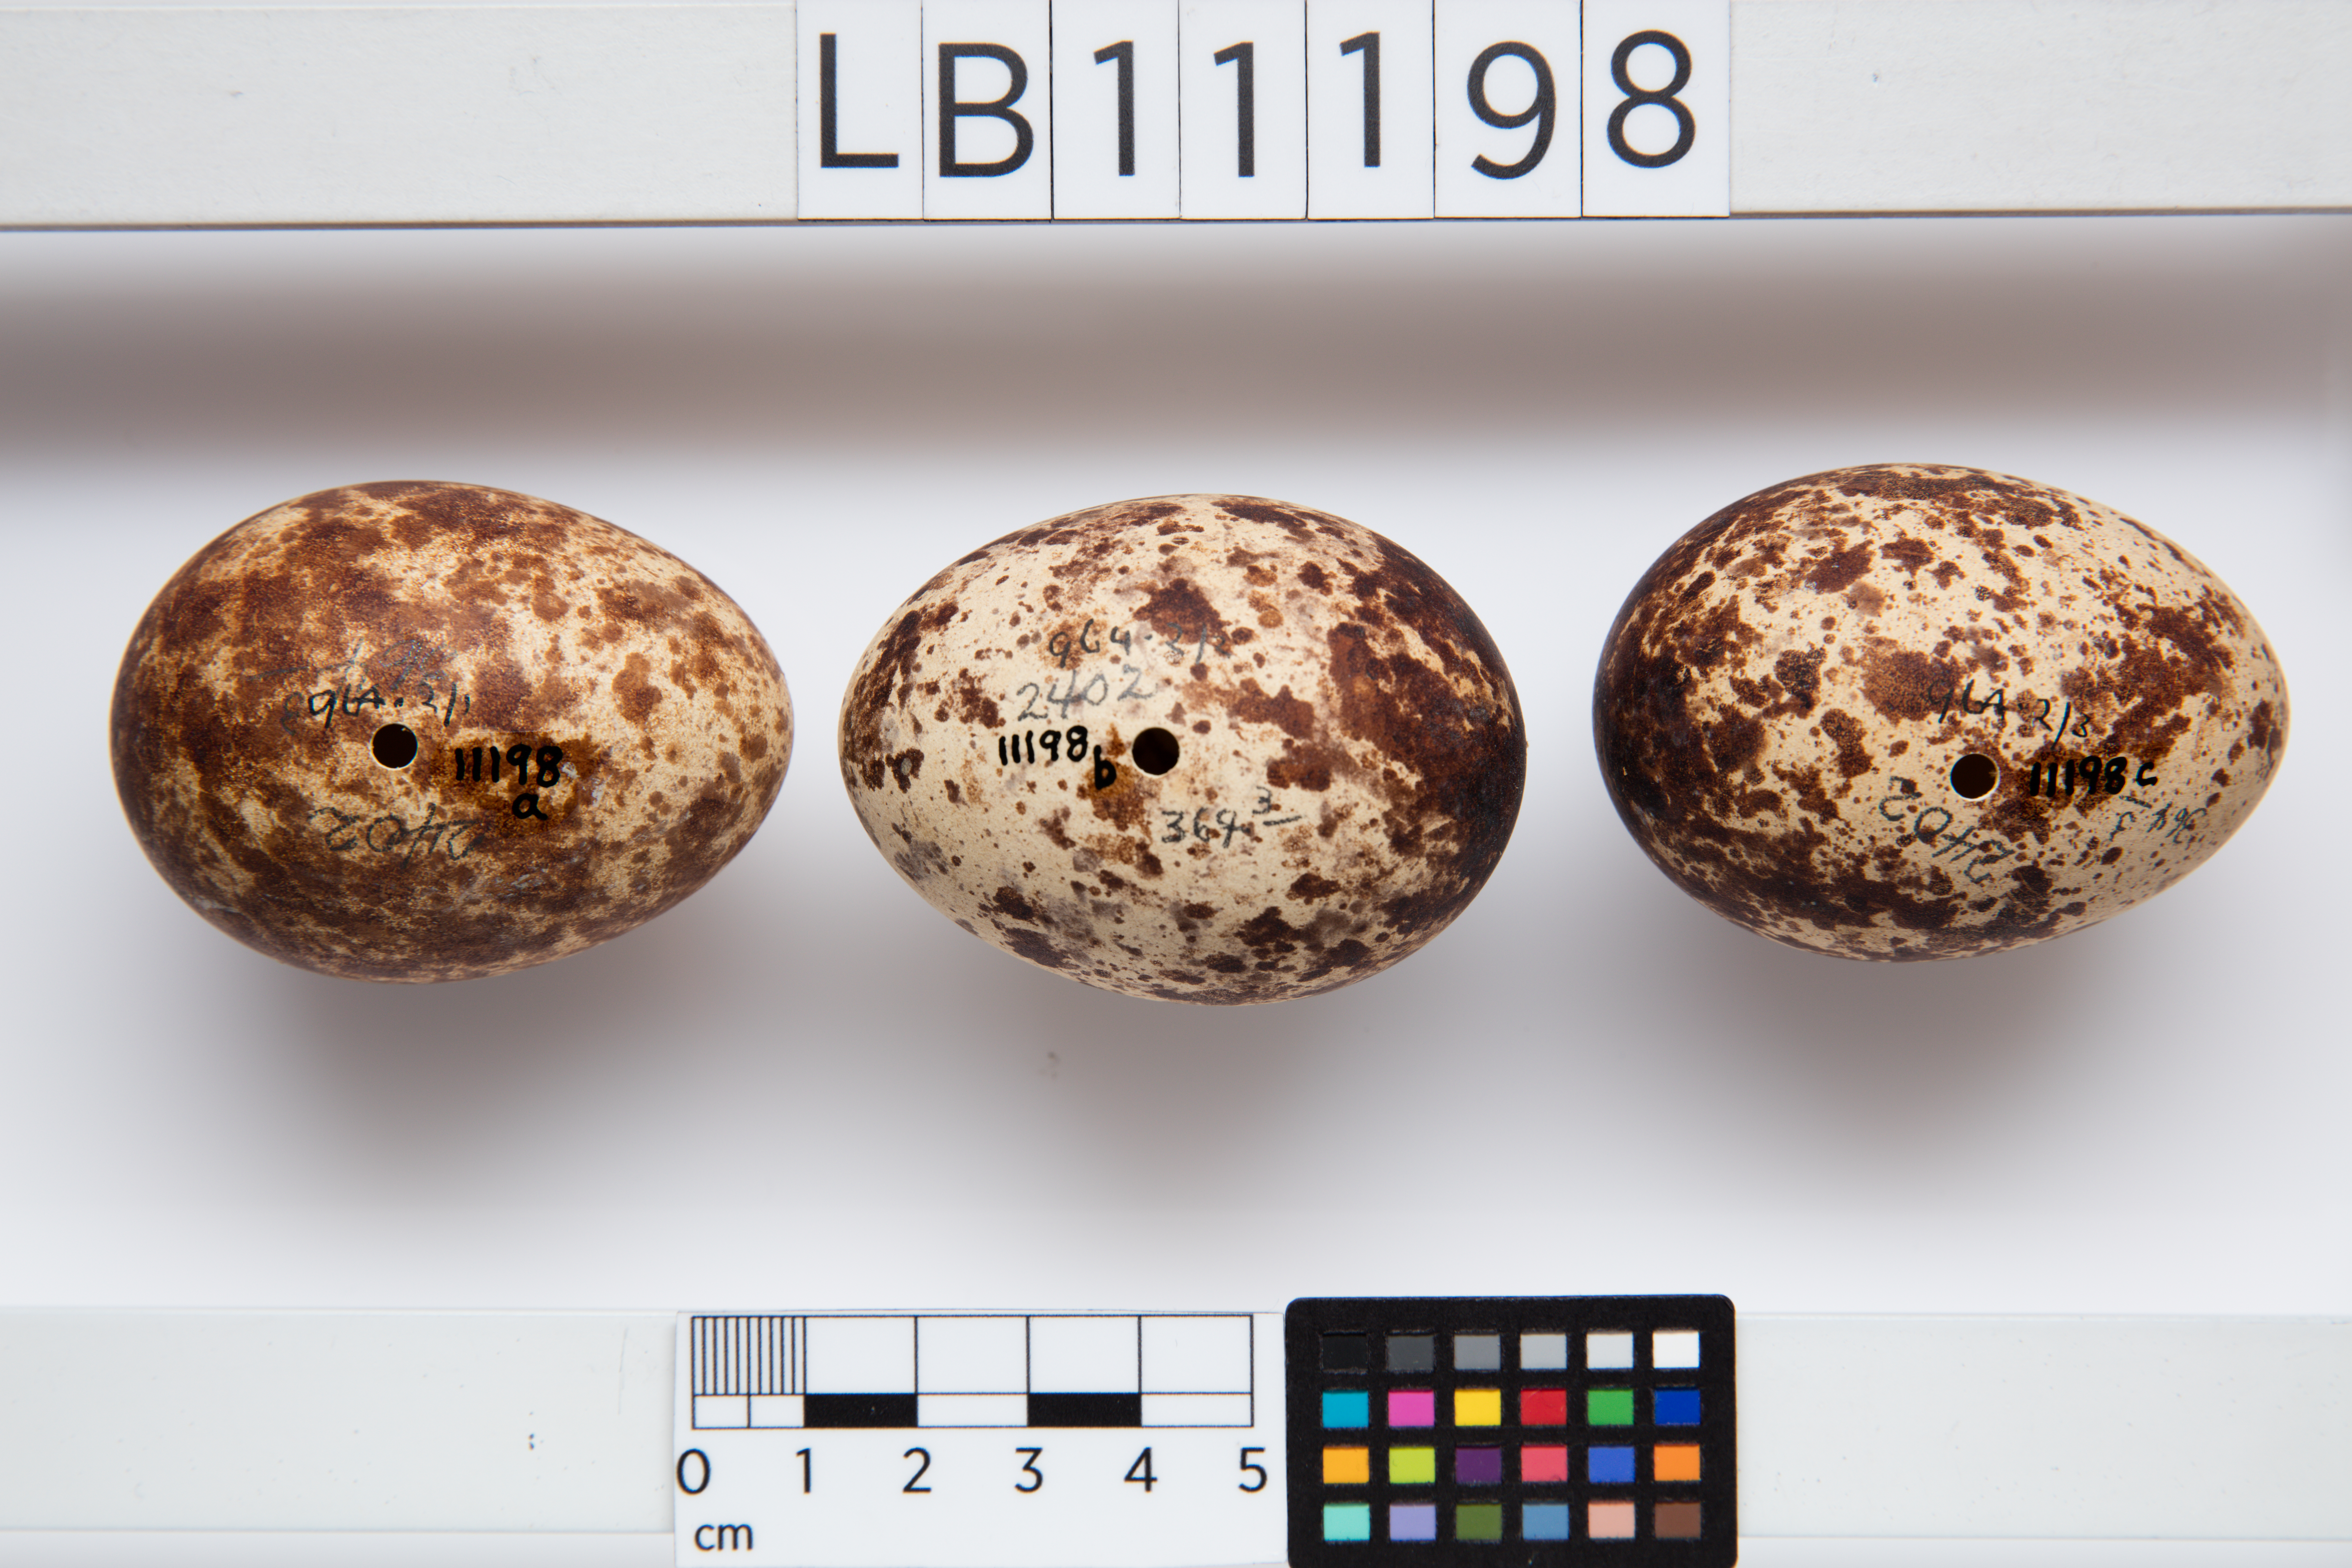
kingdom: Animalia
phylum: Chordata
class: Aves
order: Accipitriformes
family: Pandionidae
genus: Pandion
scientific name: Pandion haliaetus
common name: Osprey
